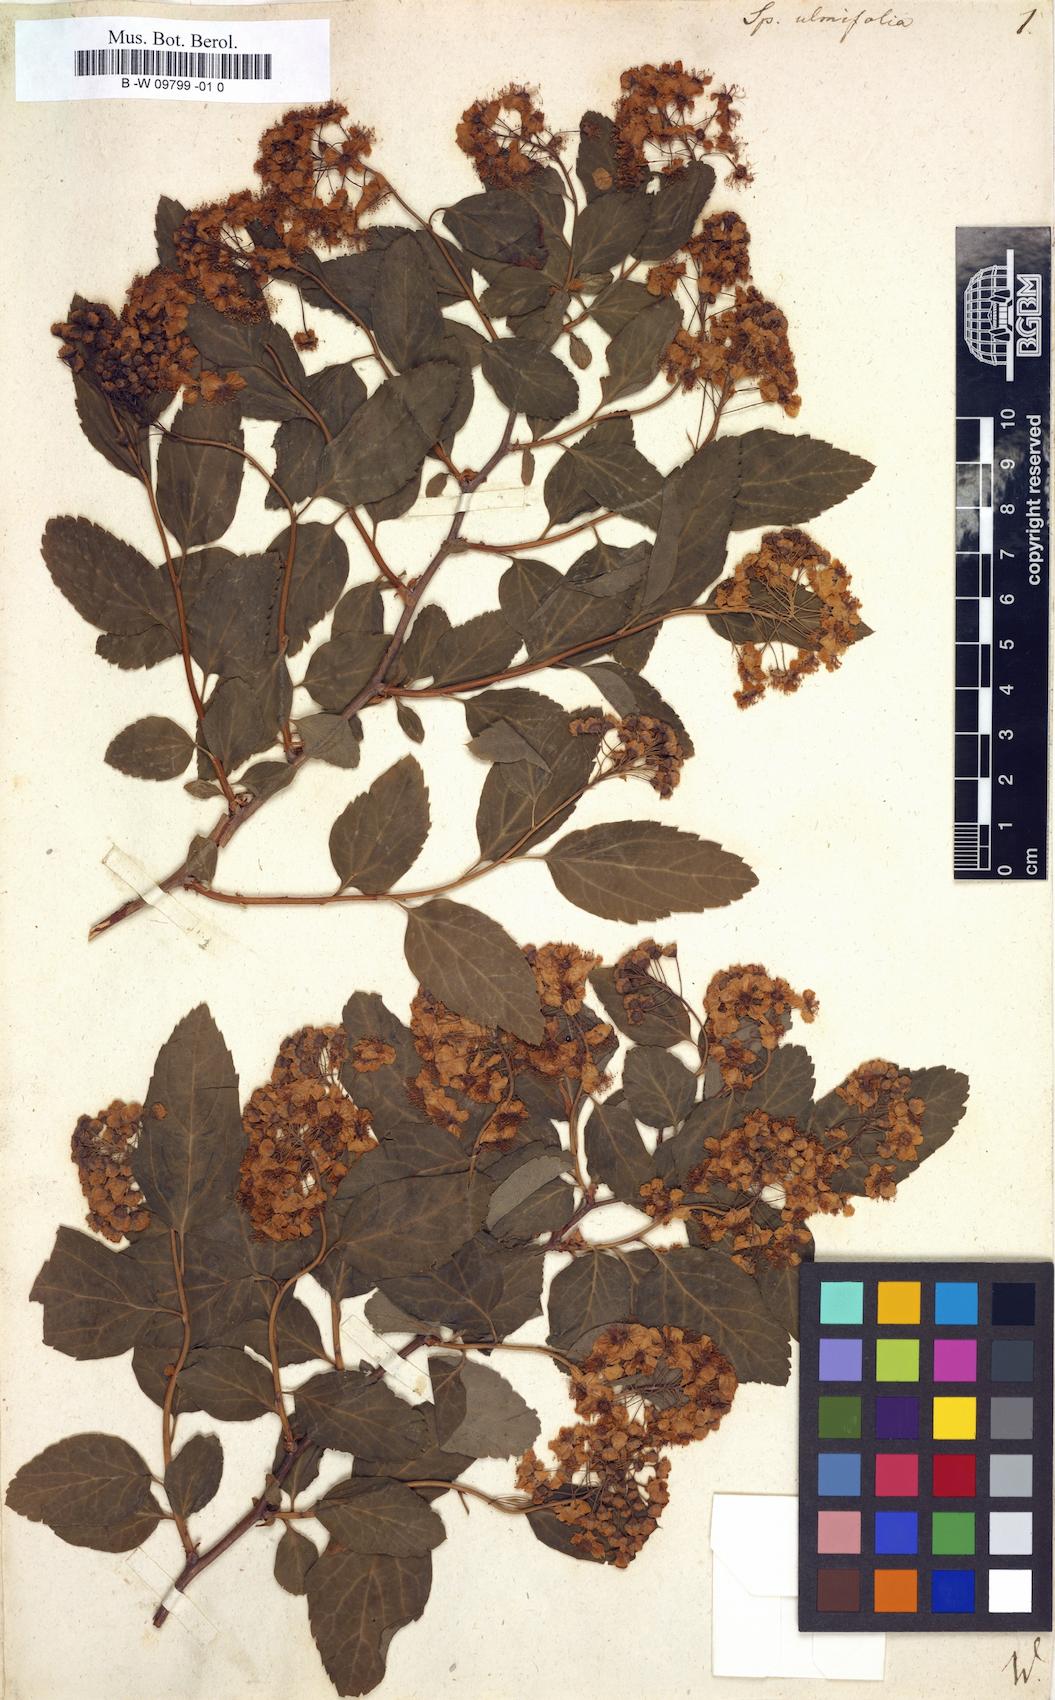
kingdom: Plantae
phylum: Tracheophyta
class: Magnoliopsida
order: Rosales
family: Rosaceae
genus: Spiraea
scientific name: Spiraea chamaedryfolia
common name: Elm-leaved spiraea
